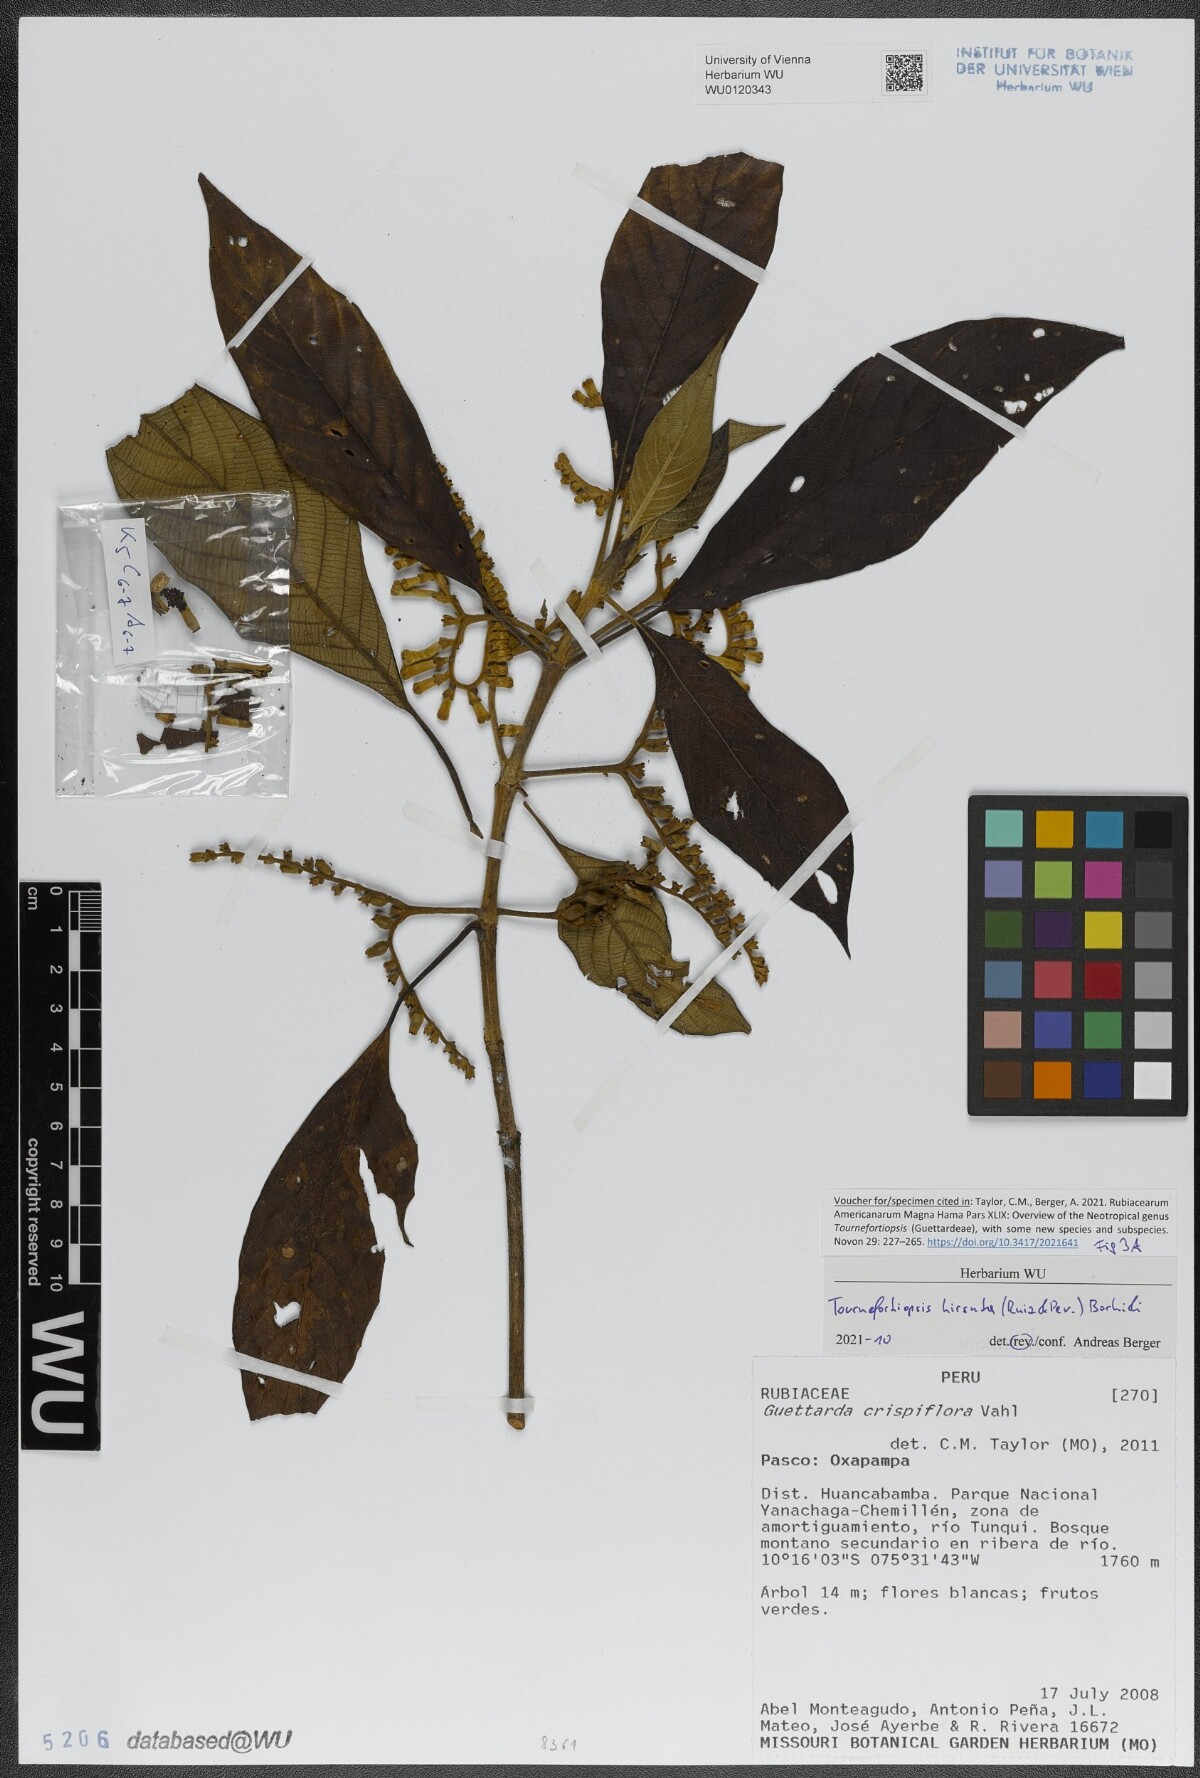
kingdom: Plantae
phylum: Tracheophyta
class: Magnoliopsida
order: Gentianales
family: Rubiaceae
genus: Tournefortiopsis
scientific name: Tournefortiopsis hirsuta
